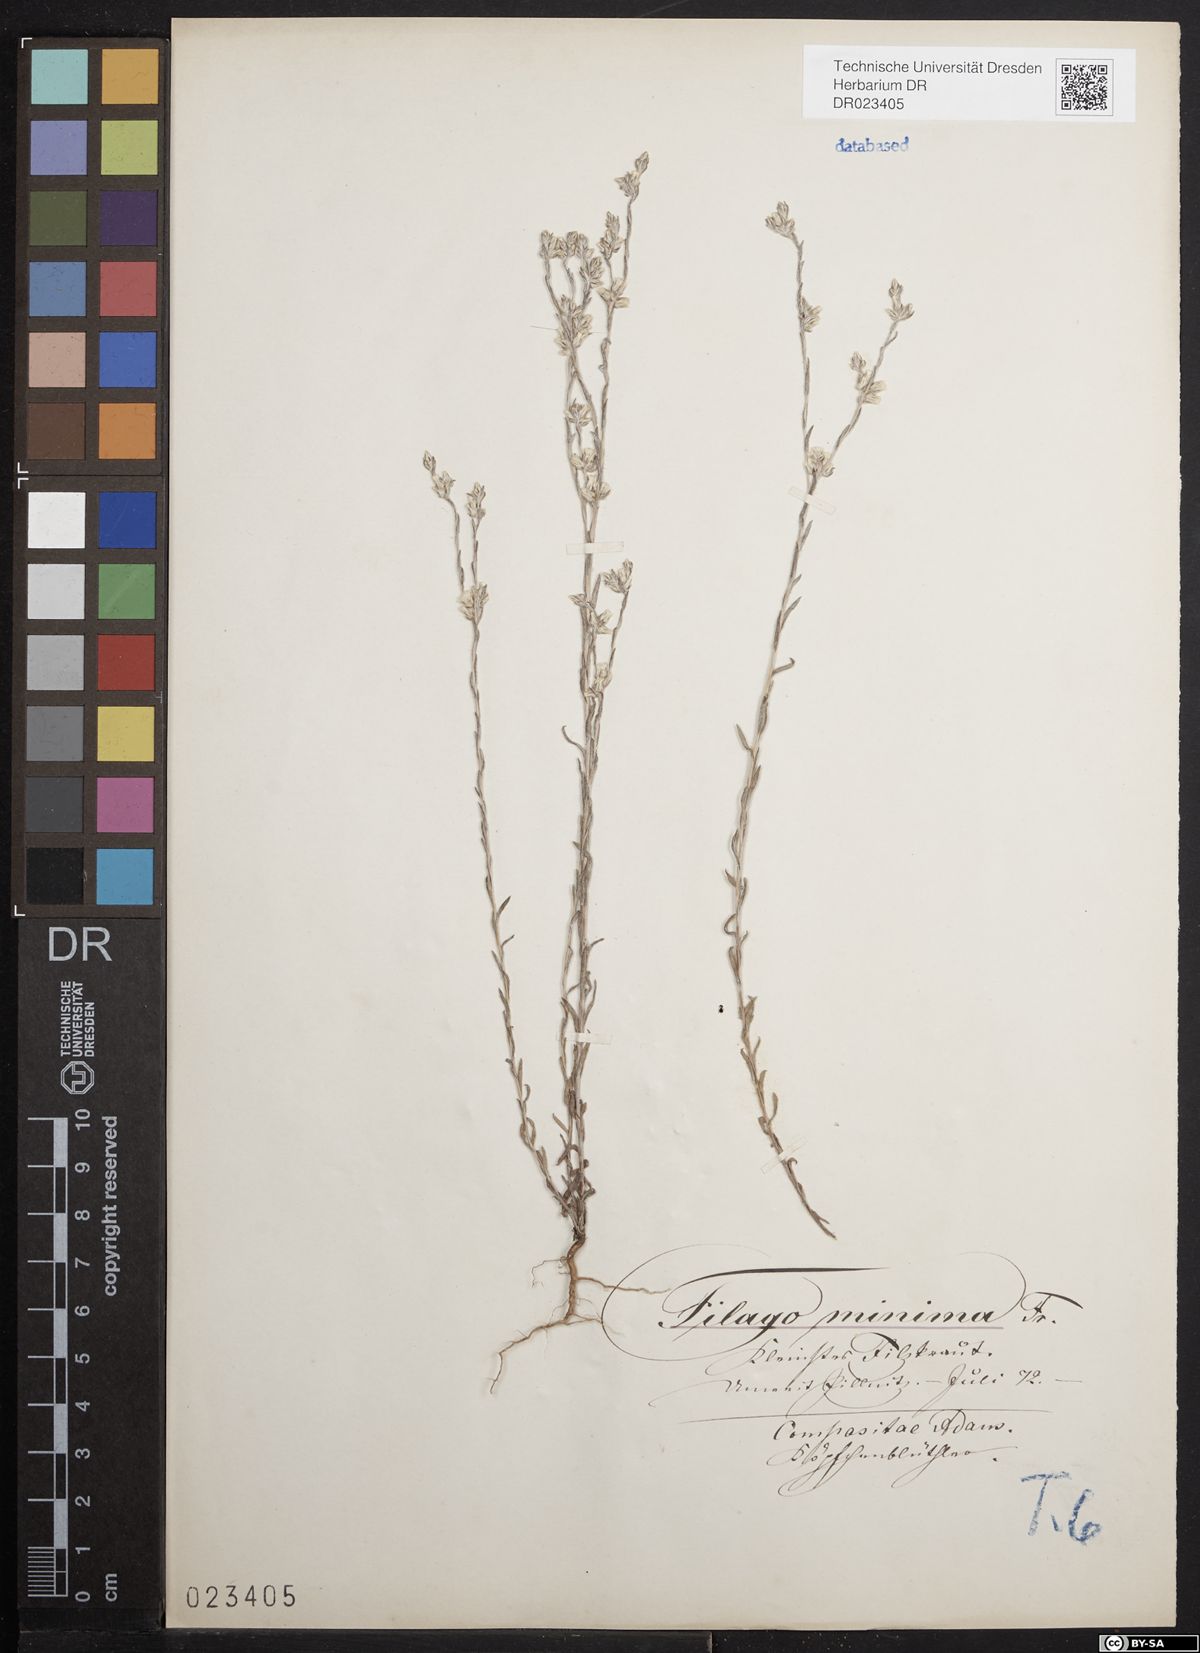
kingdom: Plantae
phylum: Tracheophyta
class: Magnoliopsida
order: Asterales
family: Asteraceae
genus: Logfia
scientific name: Logfia minima
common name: Little cottonrose
